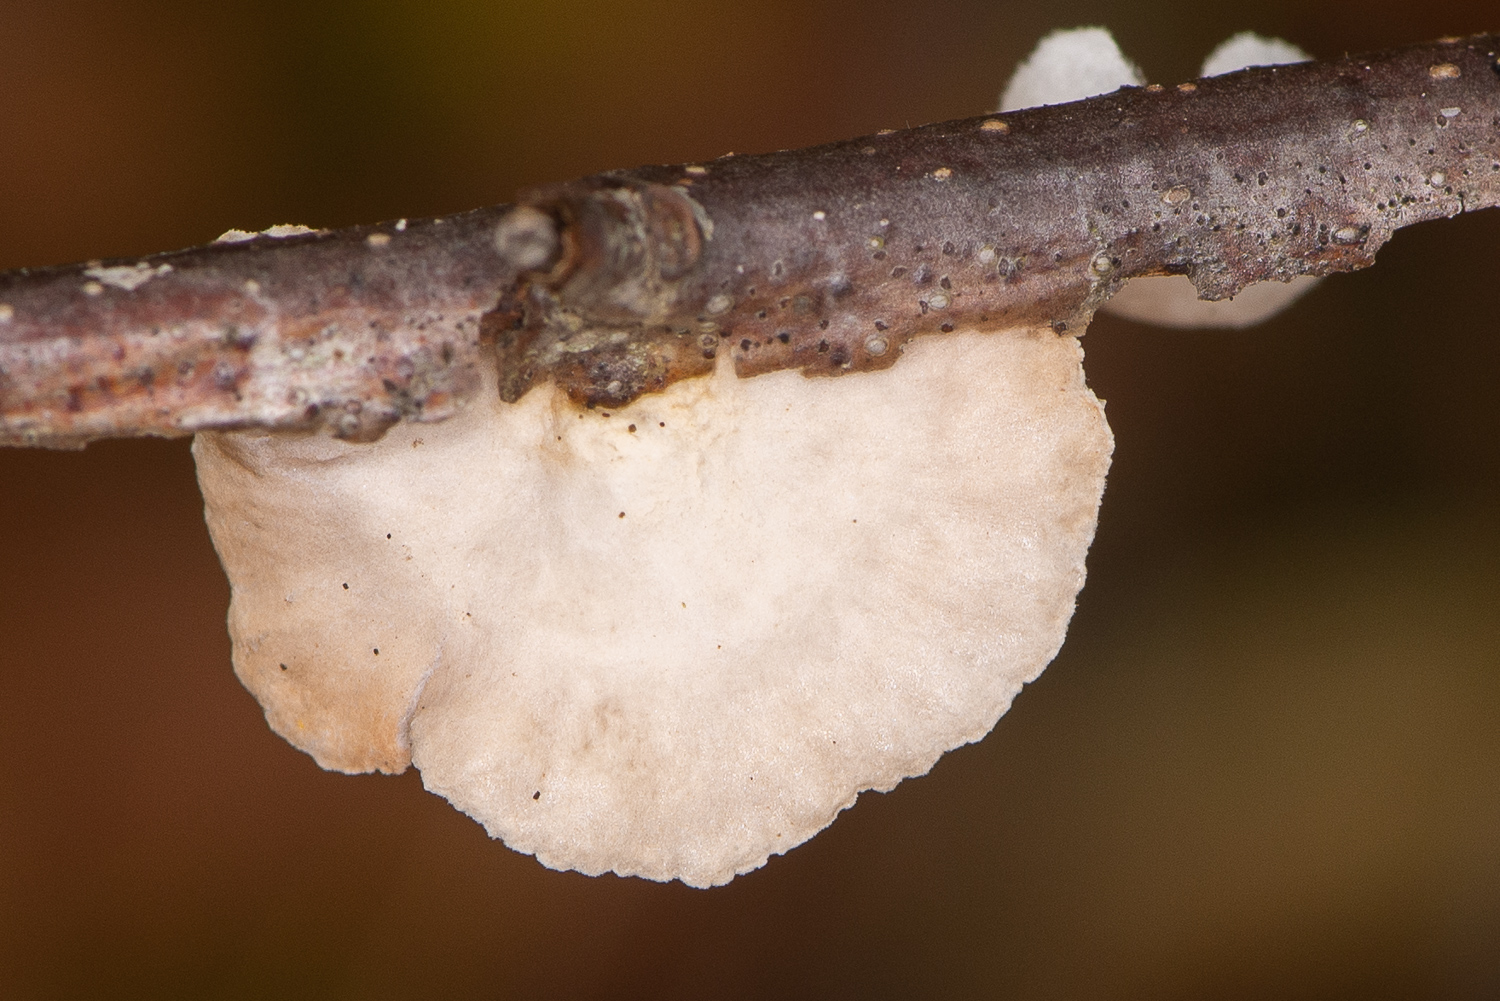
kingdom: Fungi
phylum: Basidiomycota
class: Agaricomycetes
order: Agaricales
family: Crepidotaceae
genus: Crepidotus
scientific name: Crepidotus
